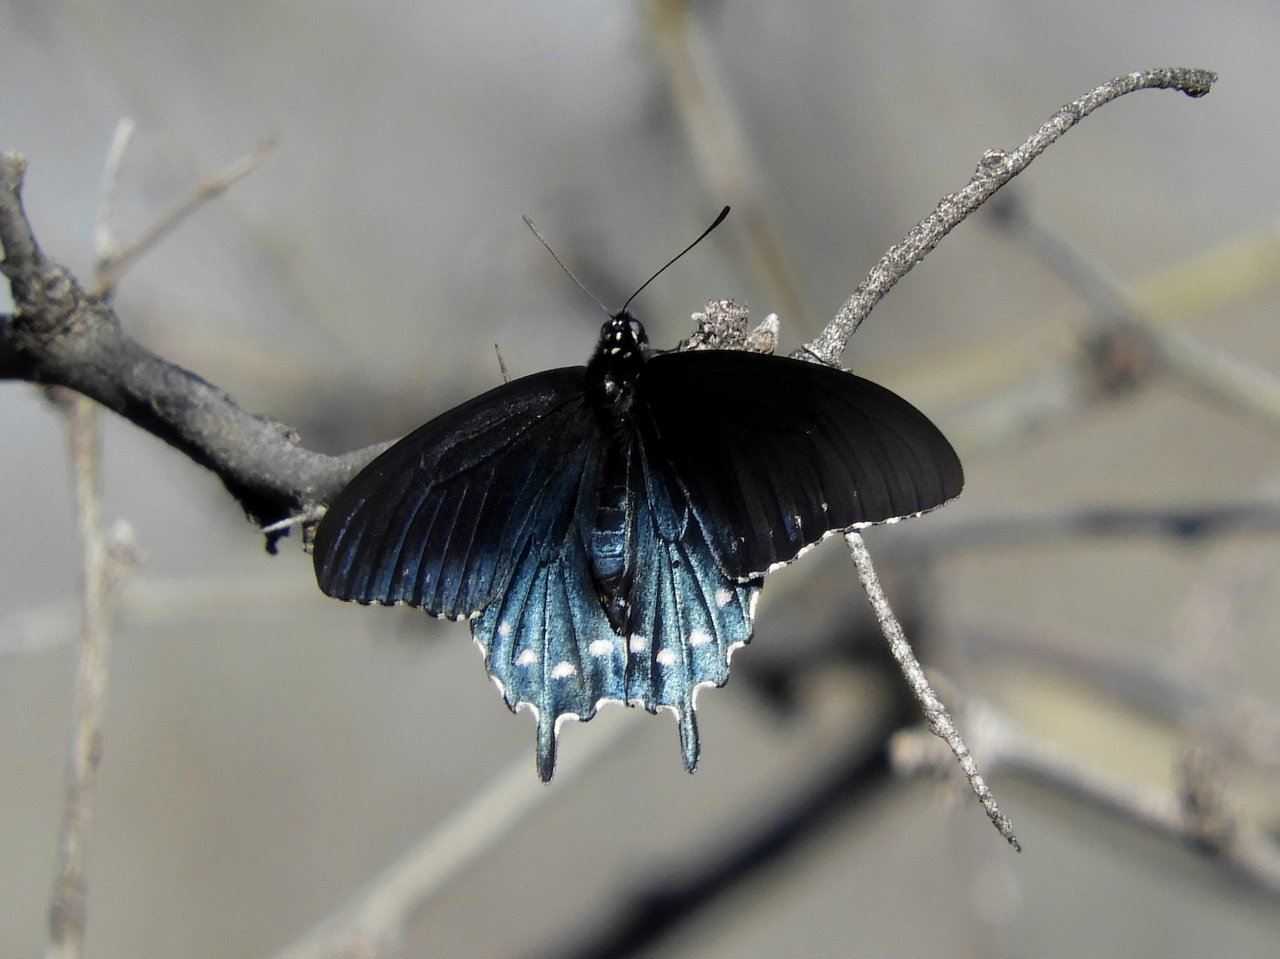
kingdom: Animalia
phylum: Arthropoda
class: Insecta
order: Lepidoptera
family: Papilionidae
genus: Battus
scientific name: Battus philenor
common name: Pipevine Swallowtail
